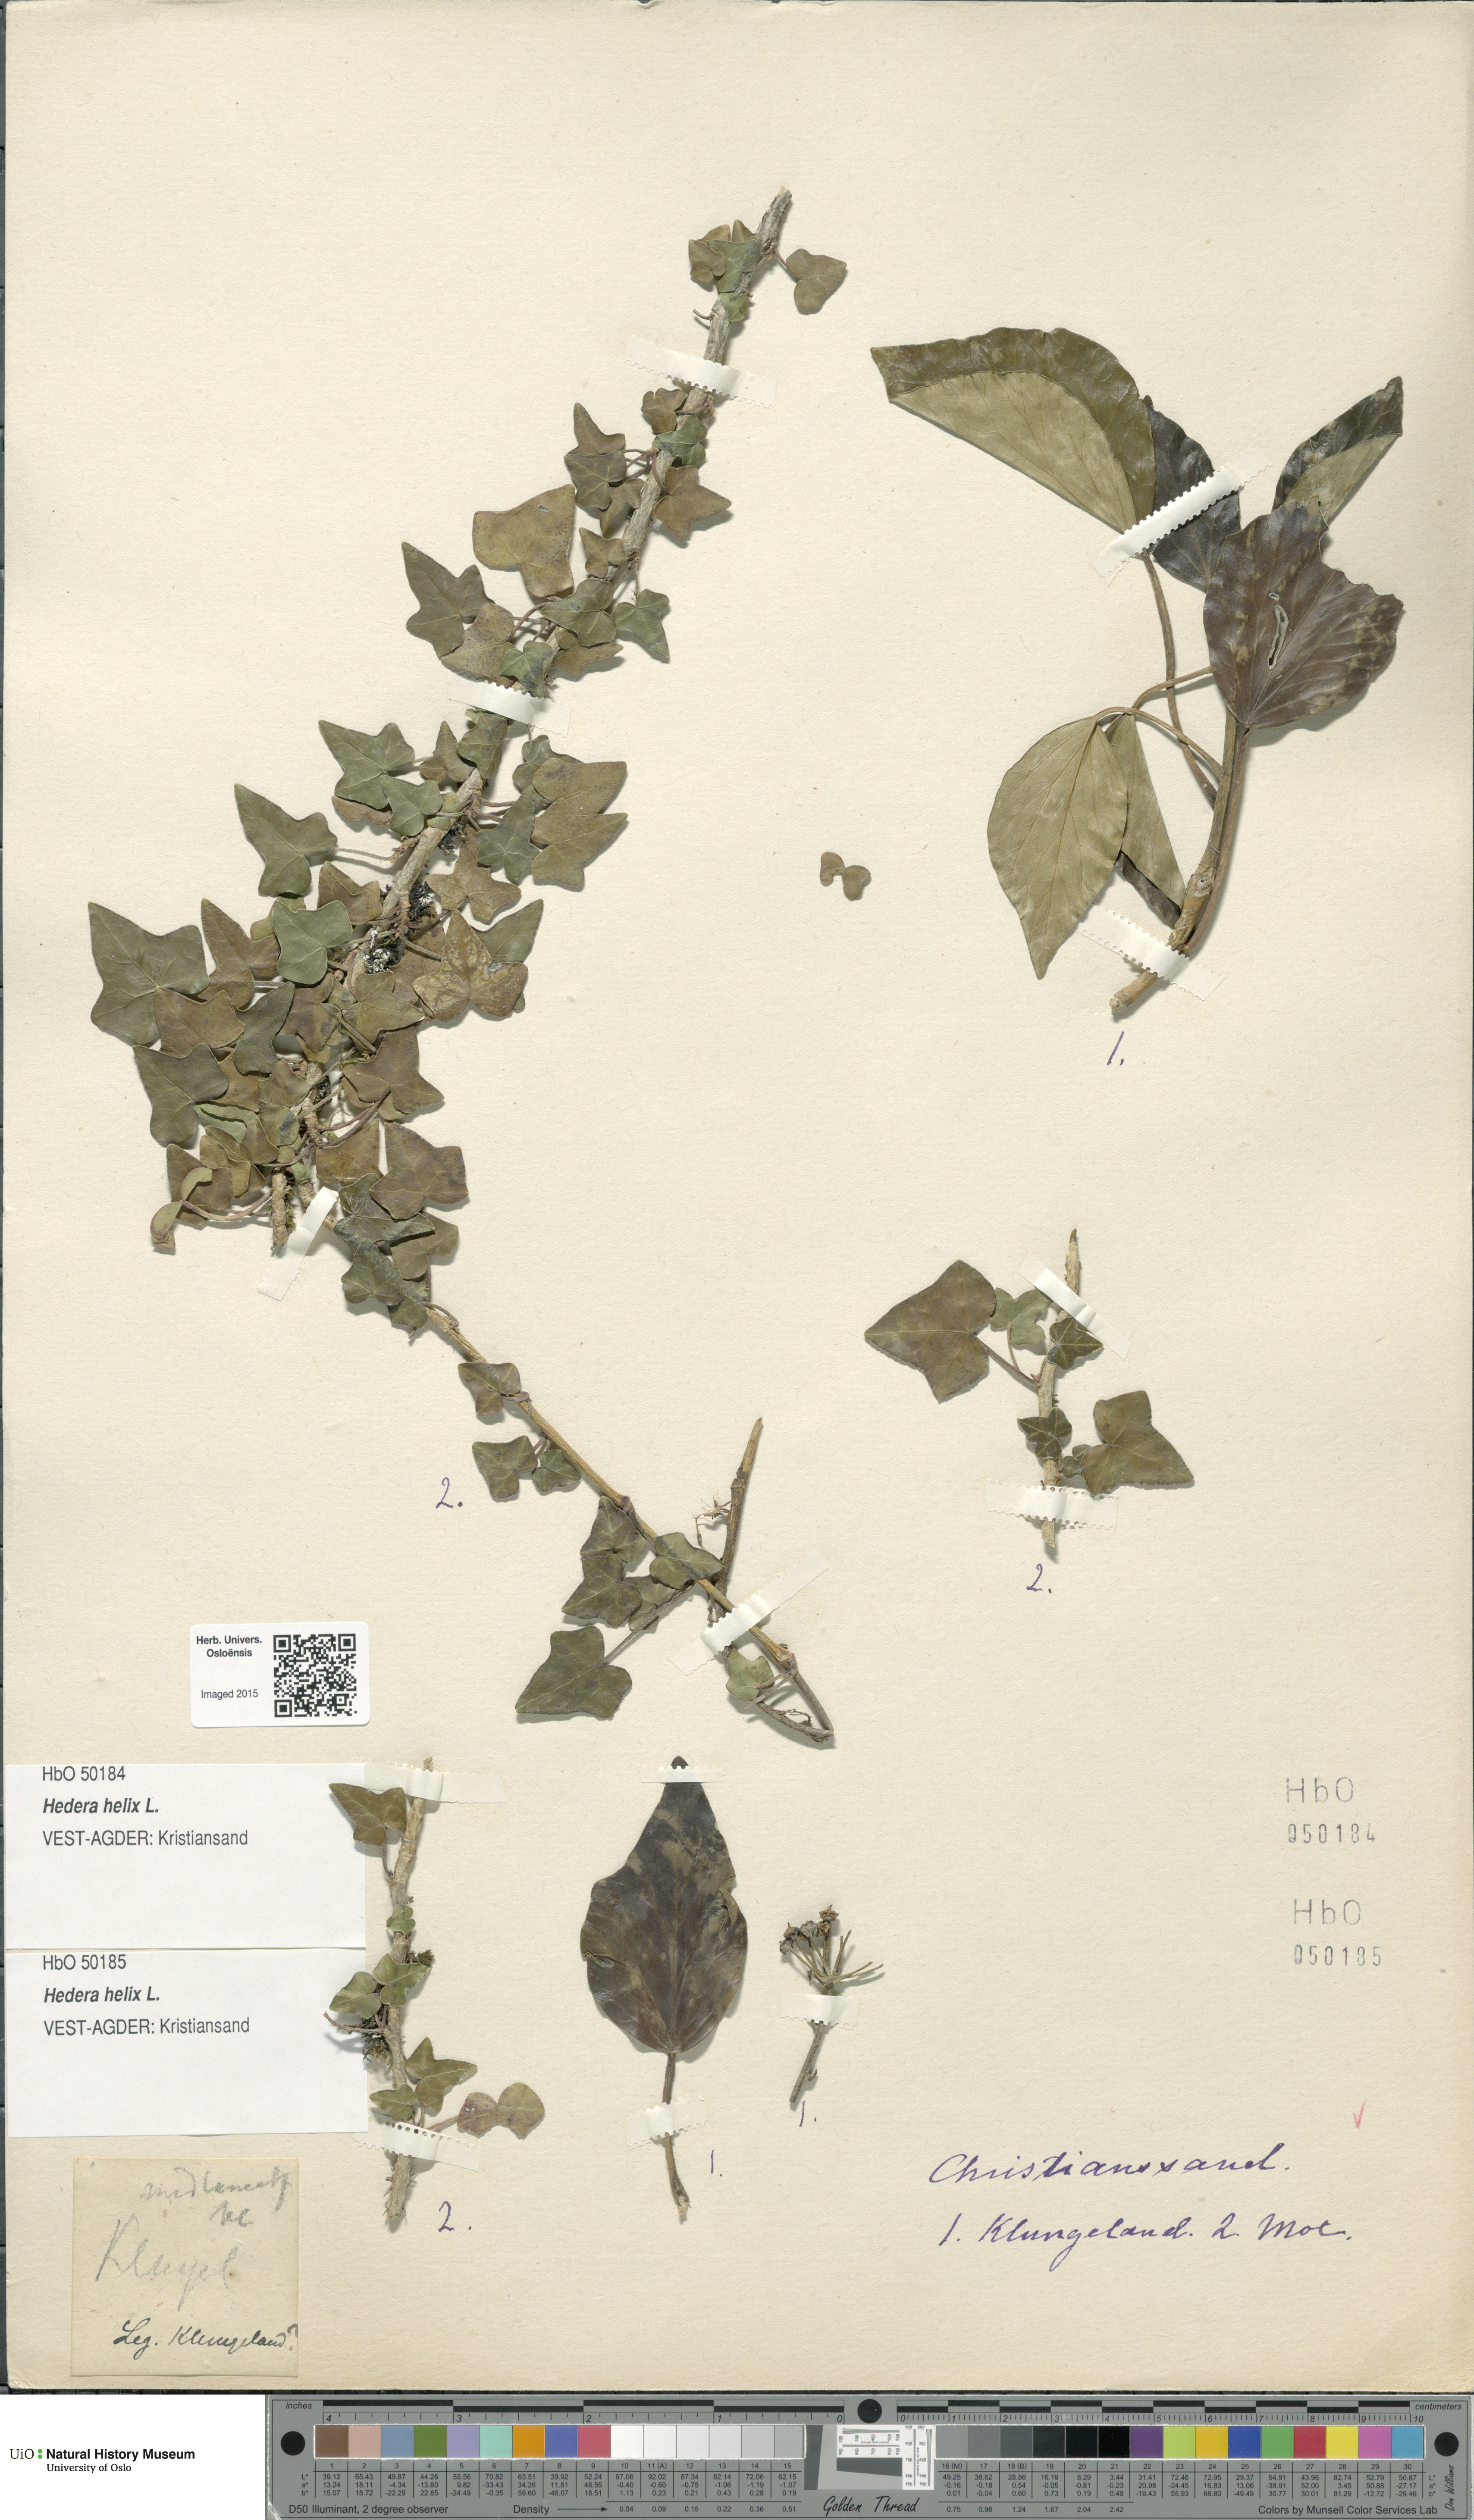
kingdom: Plantae
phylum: Tracheophyta
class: Magnoliopsida
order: Apiales
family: Araliaceae
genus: Hedera
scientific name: Hedera helix
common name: Ivy
